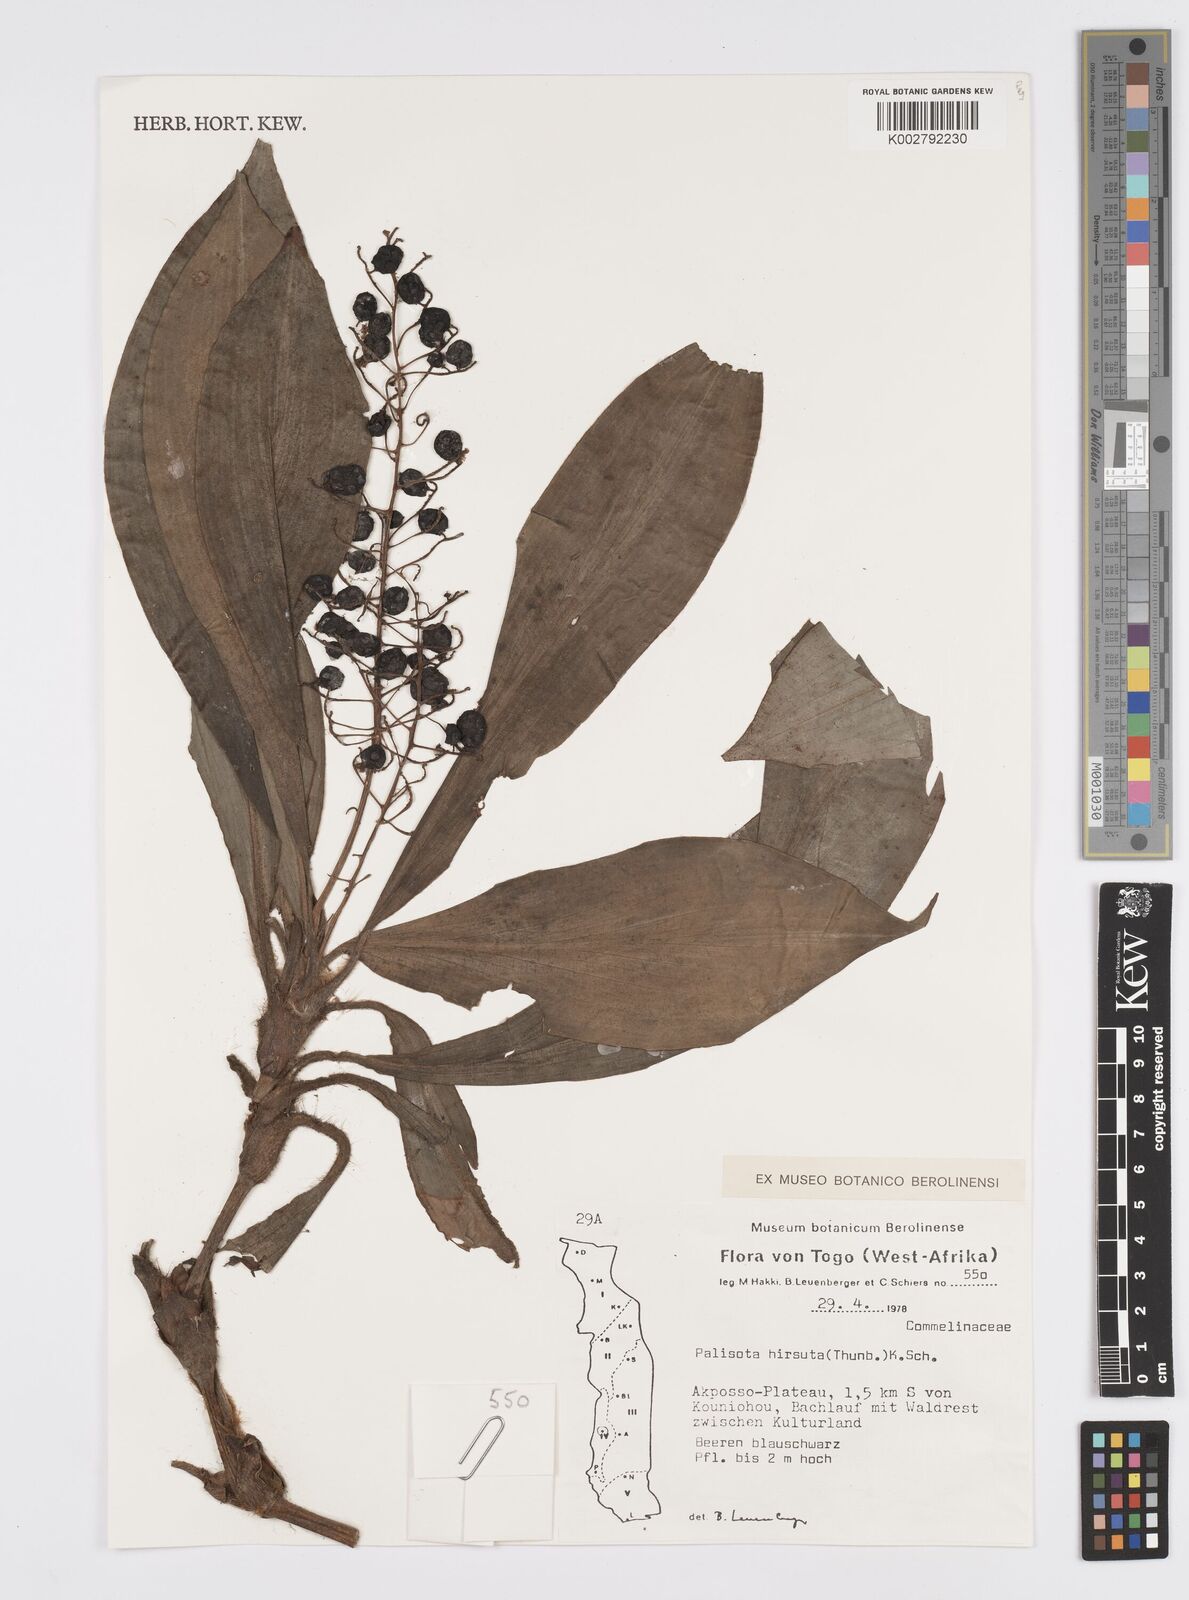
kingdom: Plantae
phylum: Tracheophyta
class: Liliopsida
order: Commelinales
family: Commelinaceae
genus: Palisota
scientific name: Palisota hirsuta
